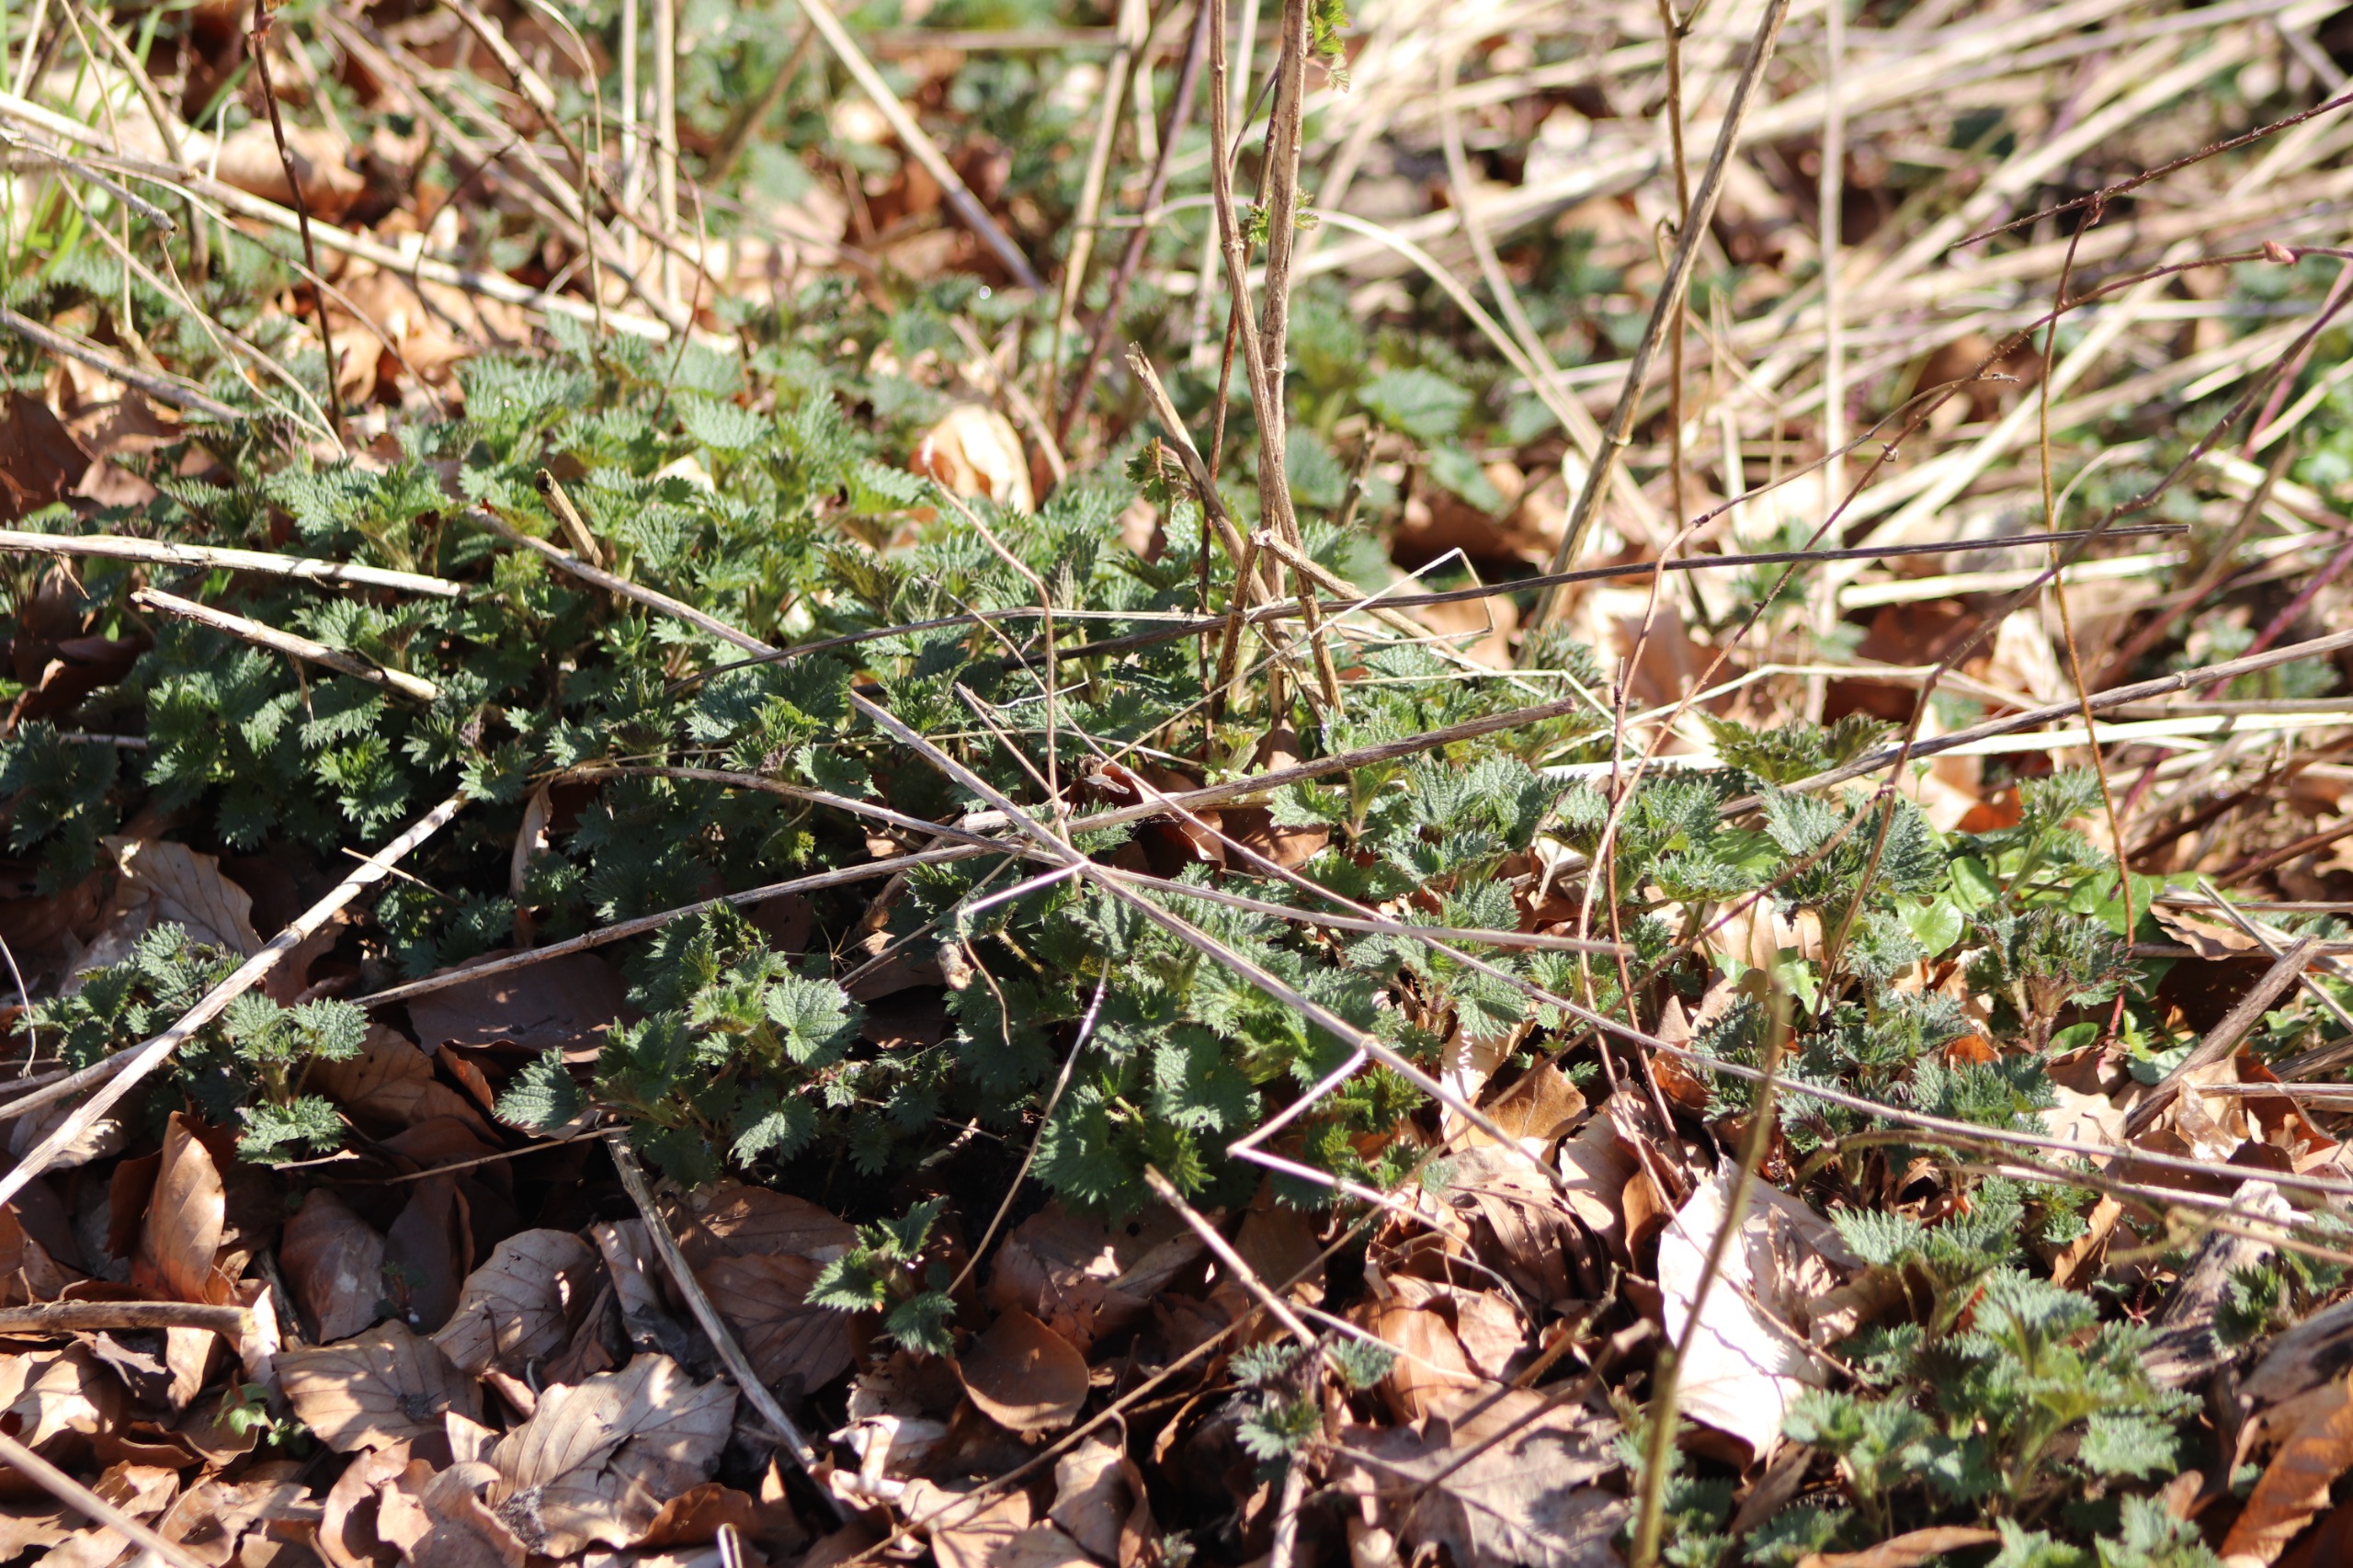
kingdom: Plantae
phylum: Tracheophyta
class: Magnoliopsida
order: Rosales
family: Urticaceae
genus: Urtica
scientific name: Urtica dioica
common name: Stor nælde
